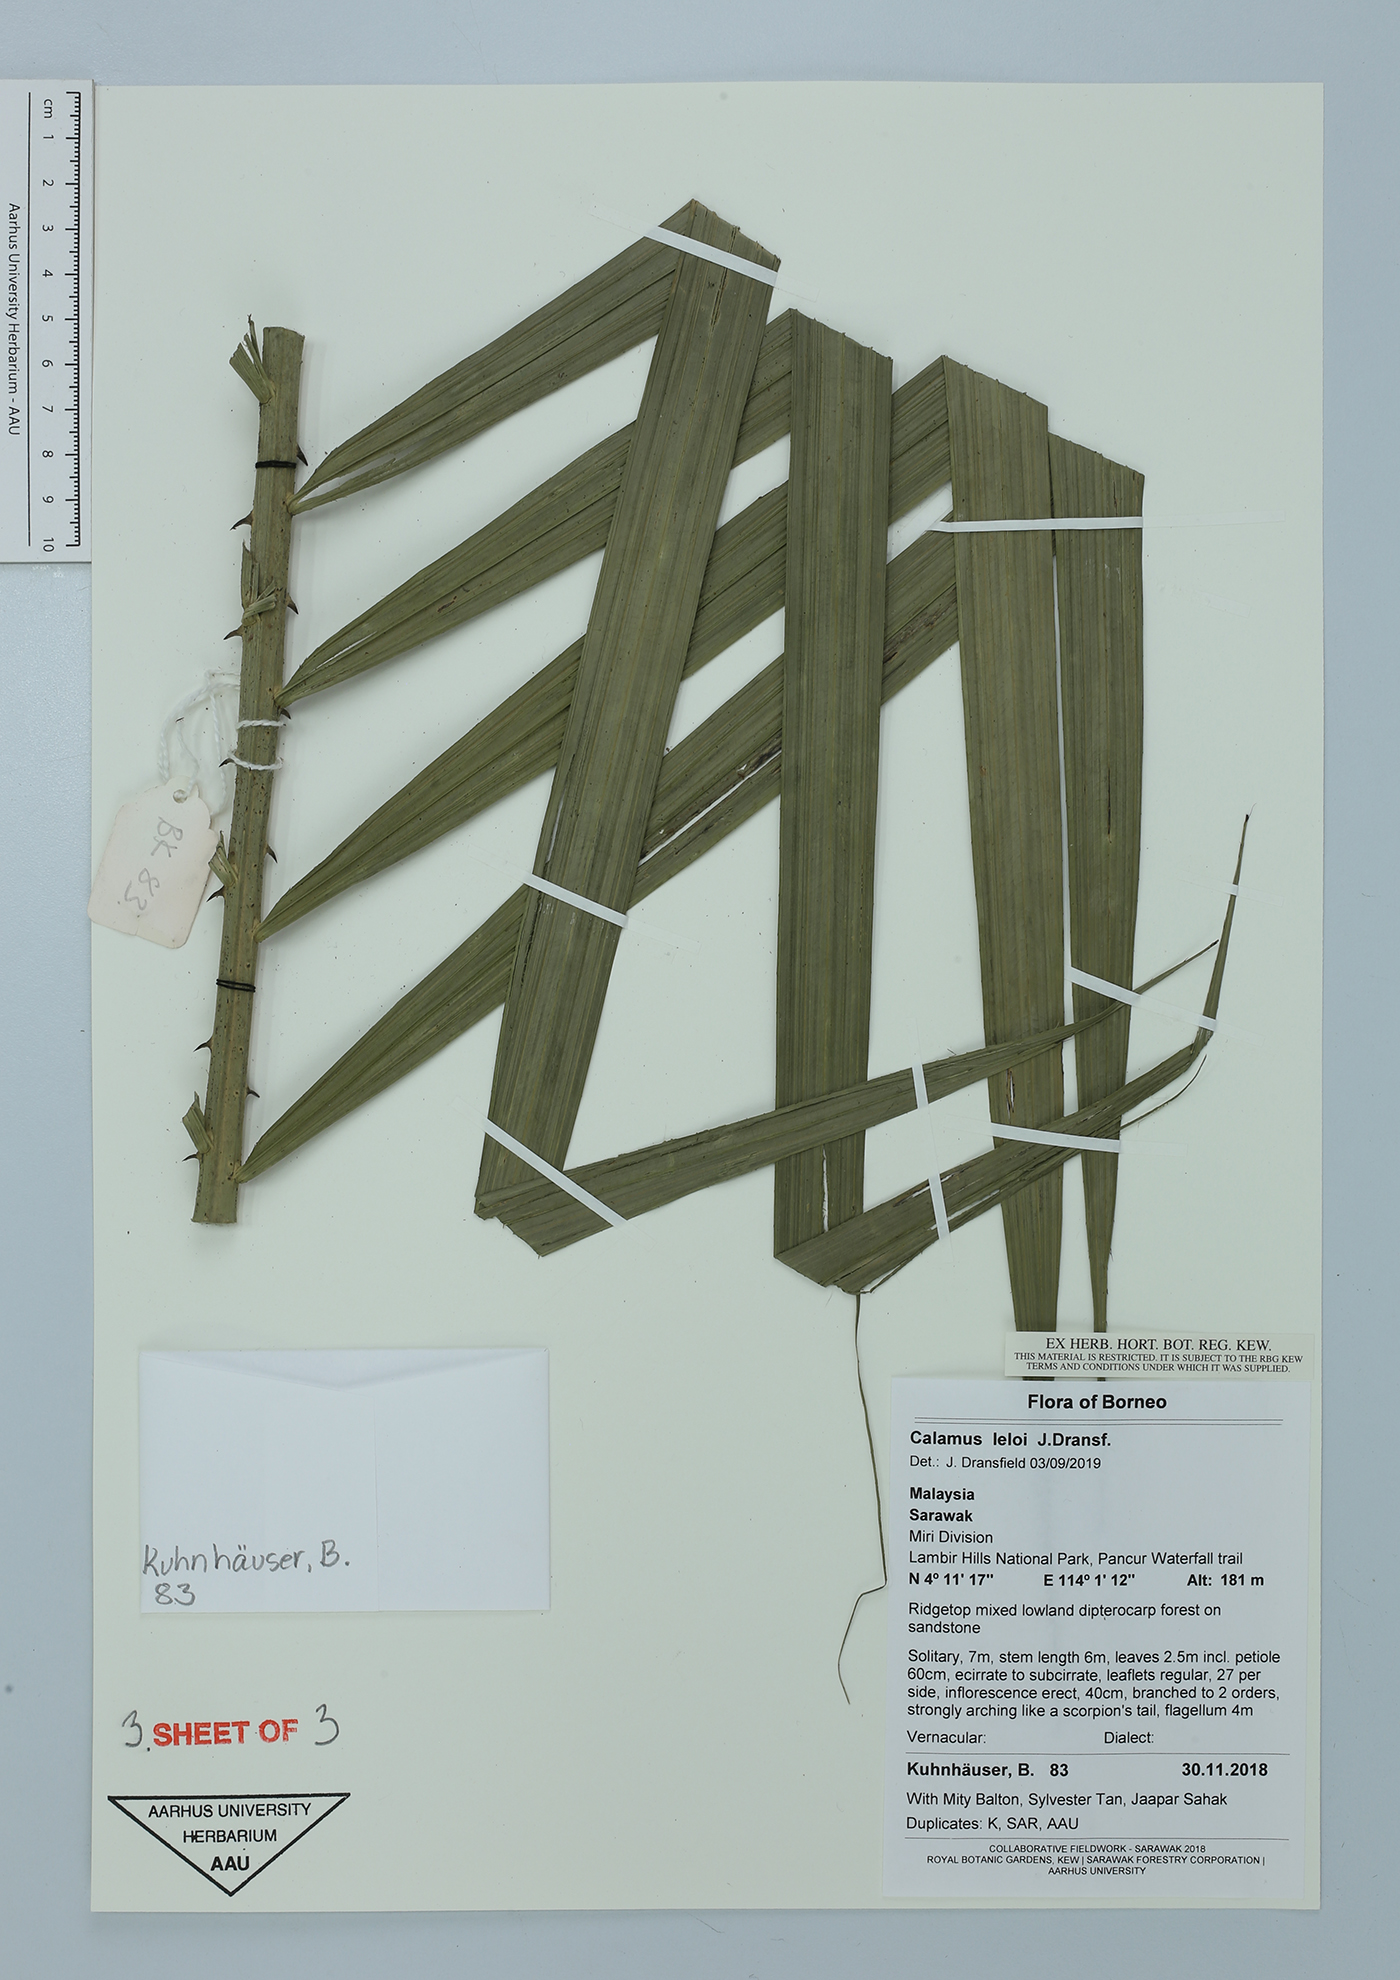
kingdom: Plantae
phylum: Tracheophyta
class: Liliopsida
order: Arecales
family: Arecaceae
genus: Calamus
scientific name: Calamus leloi
